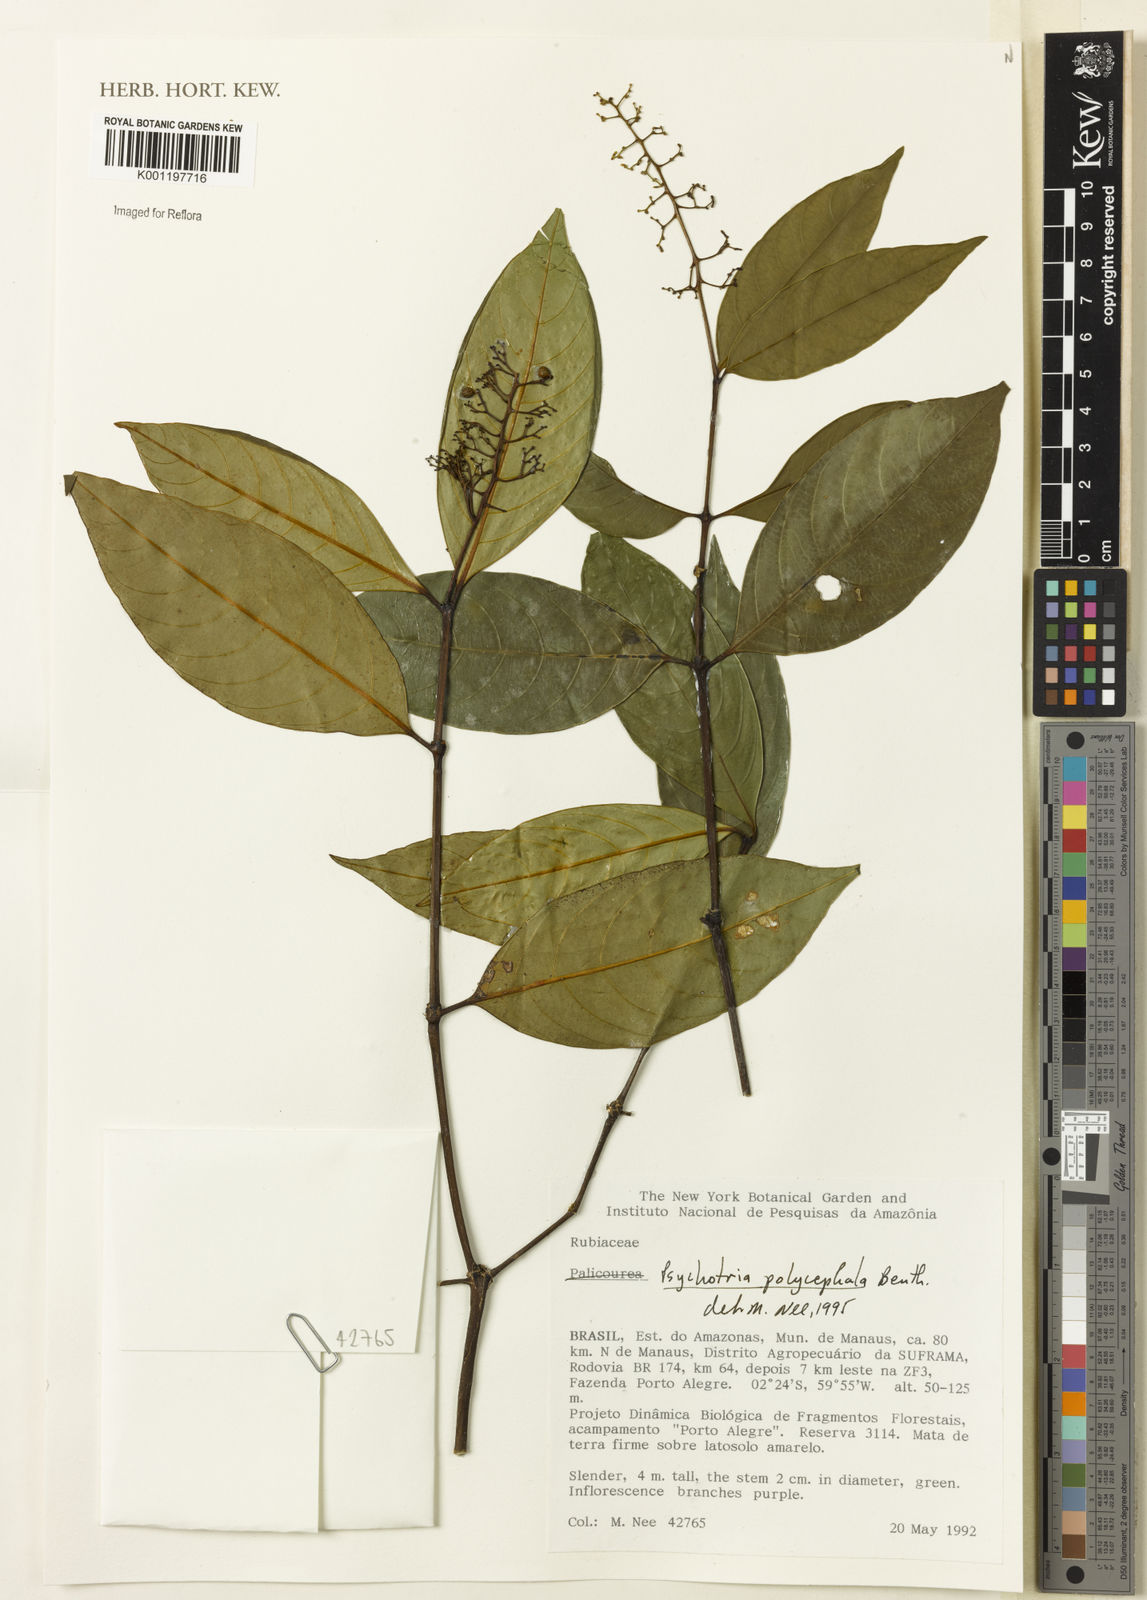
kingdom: Plantae
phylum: Tracheophyta
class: Magnoliopsida
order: Gentianales
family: Rubiaceae
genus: Palicourea
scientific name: Palicourea polycephala
